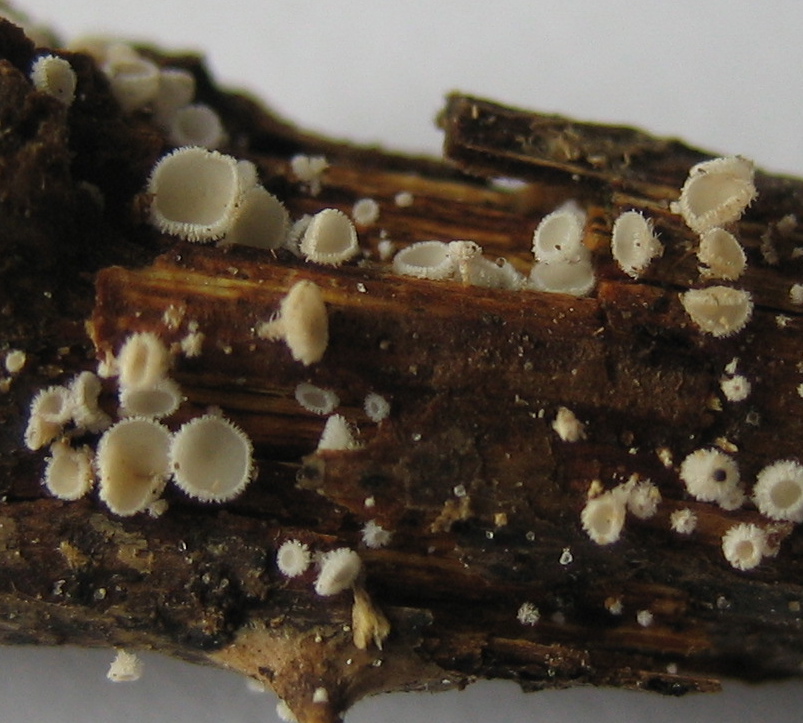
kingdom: Fungi
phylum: Ascomycota
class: Leotiomycetes
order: Helotiales
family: Lachnaceae
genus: Lachnum
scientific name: Lachnum
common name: frynseskive
